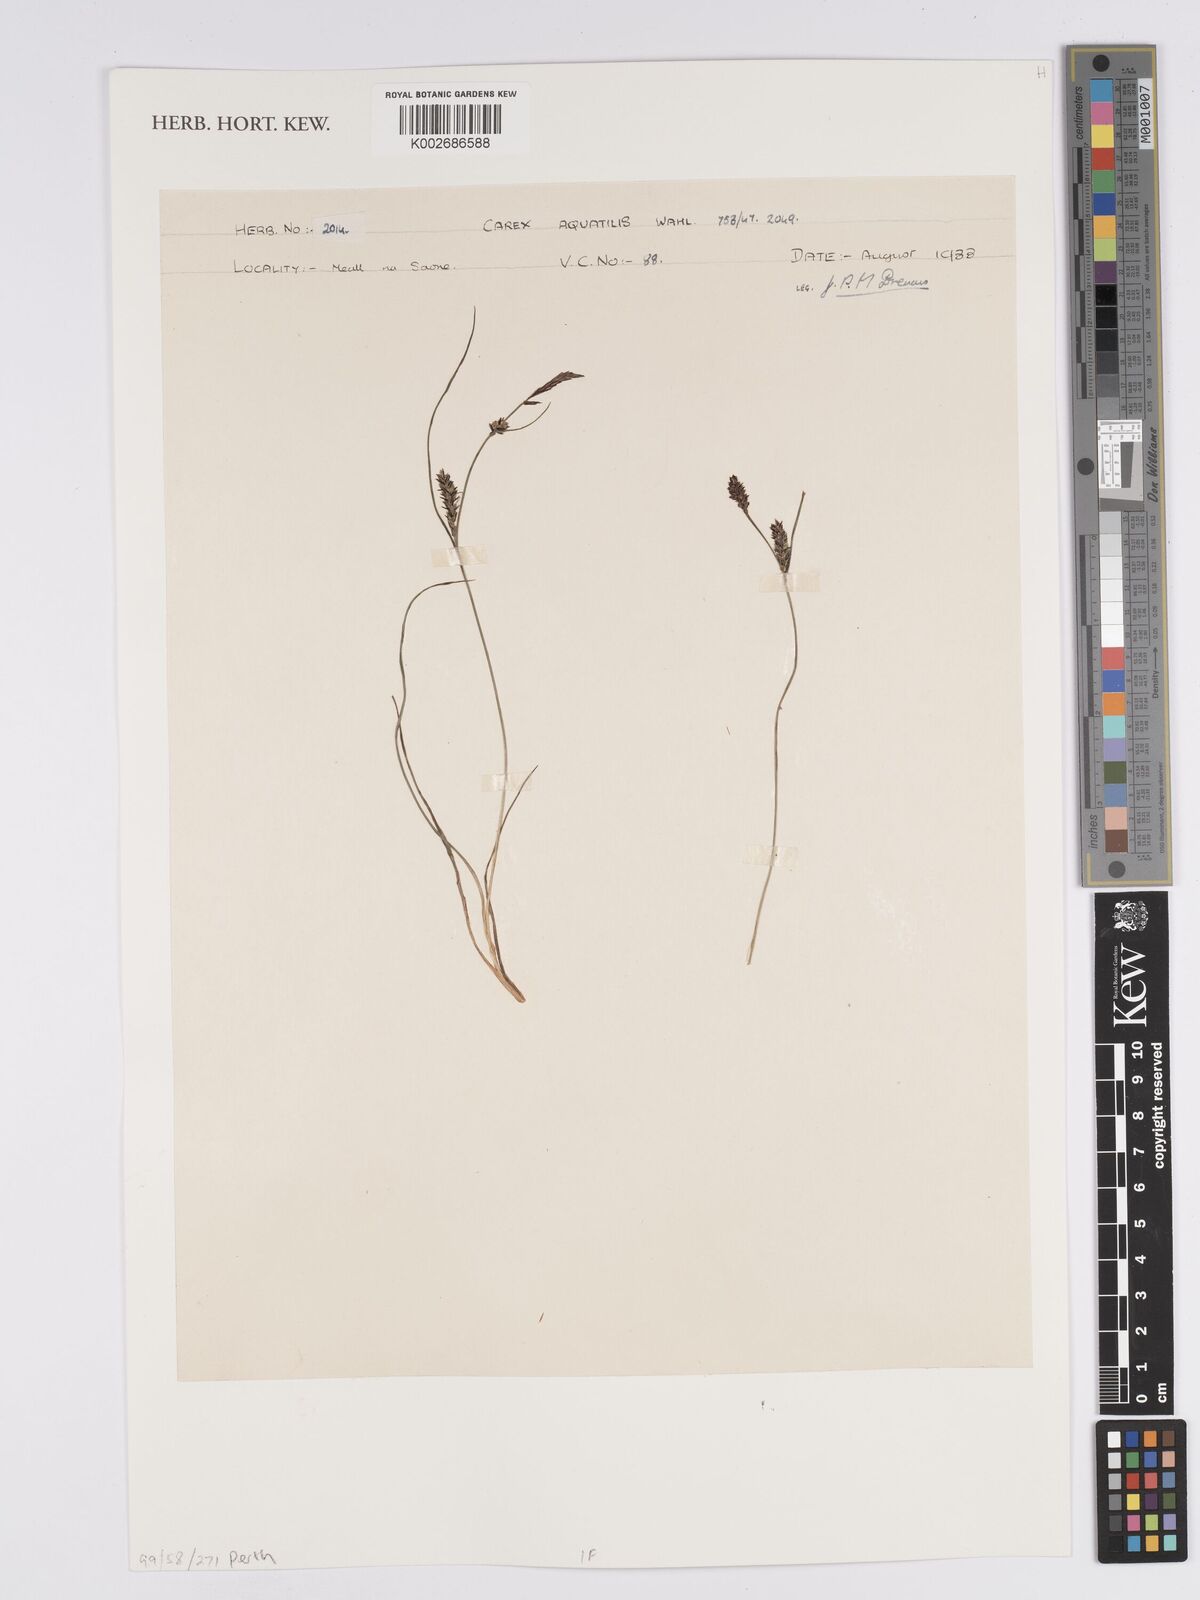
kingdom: Plantae
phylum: Tracheophyta
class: Liliopsida
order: Poales
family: Cyperaceae
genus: Carex
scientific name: Carex aquatilis
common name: Water sedge
